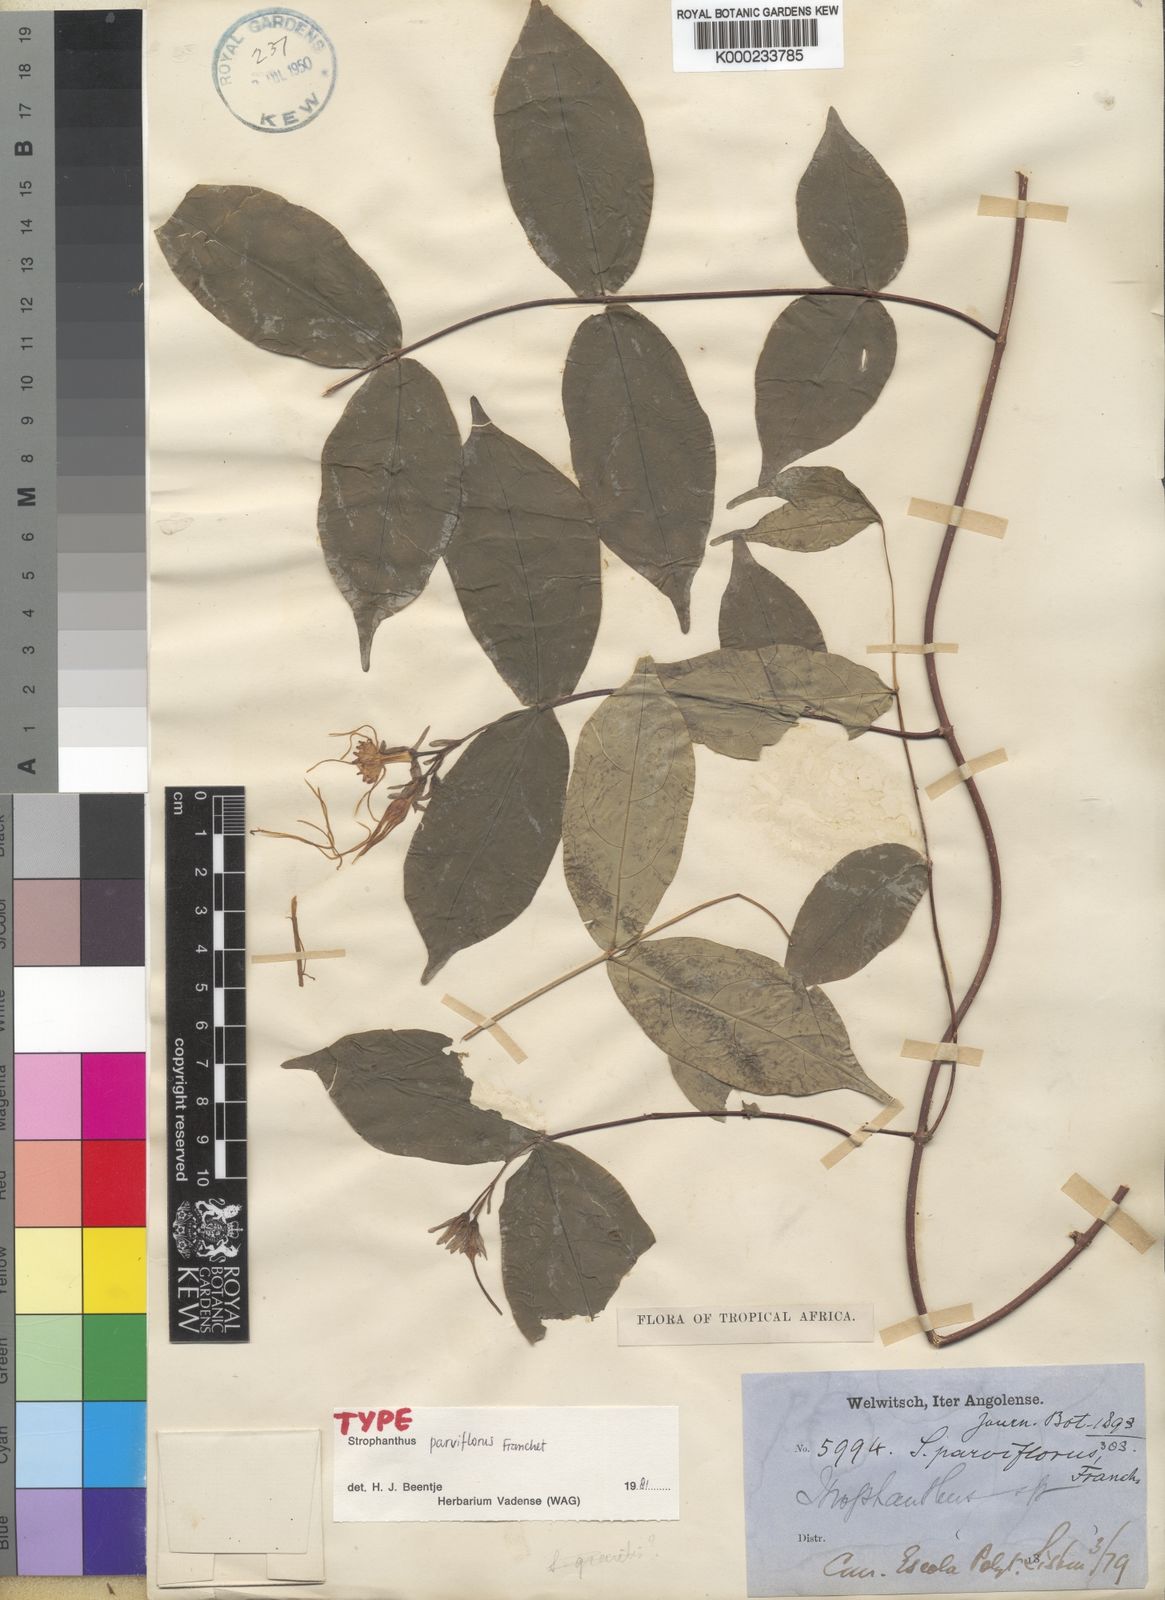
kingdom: Plantae
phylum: Tracheophyta
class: Magnoliopsida
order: Gentianales
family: Apocynaceae
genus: Strophanthus
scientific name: Strophanthus parviflorus
